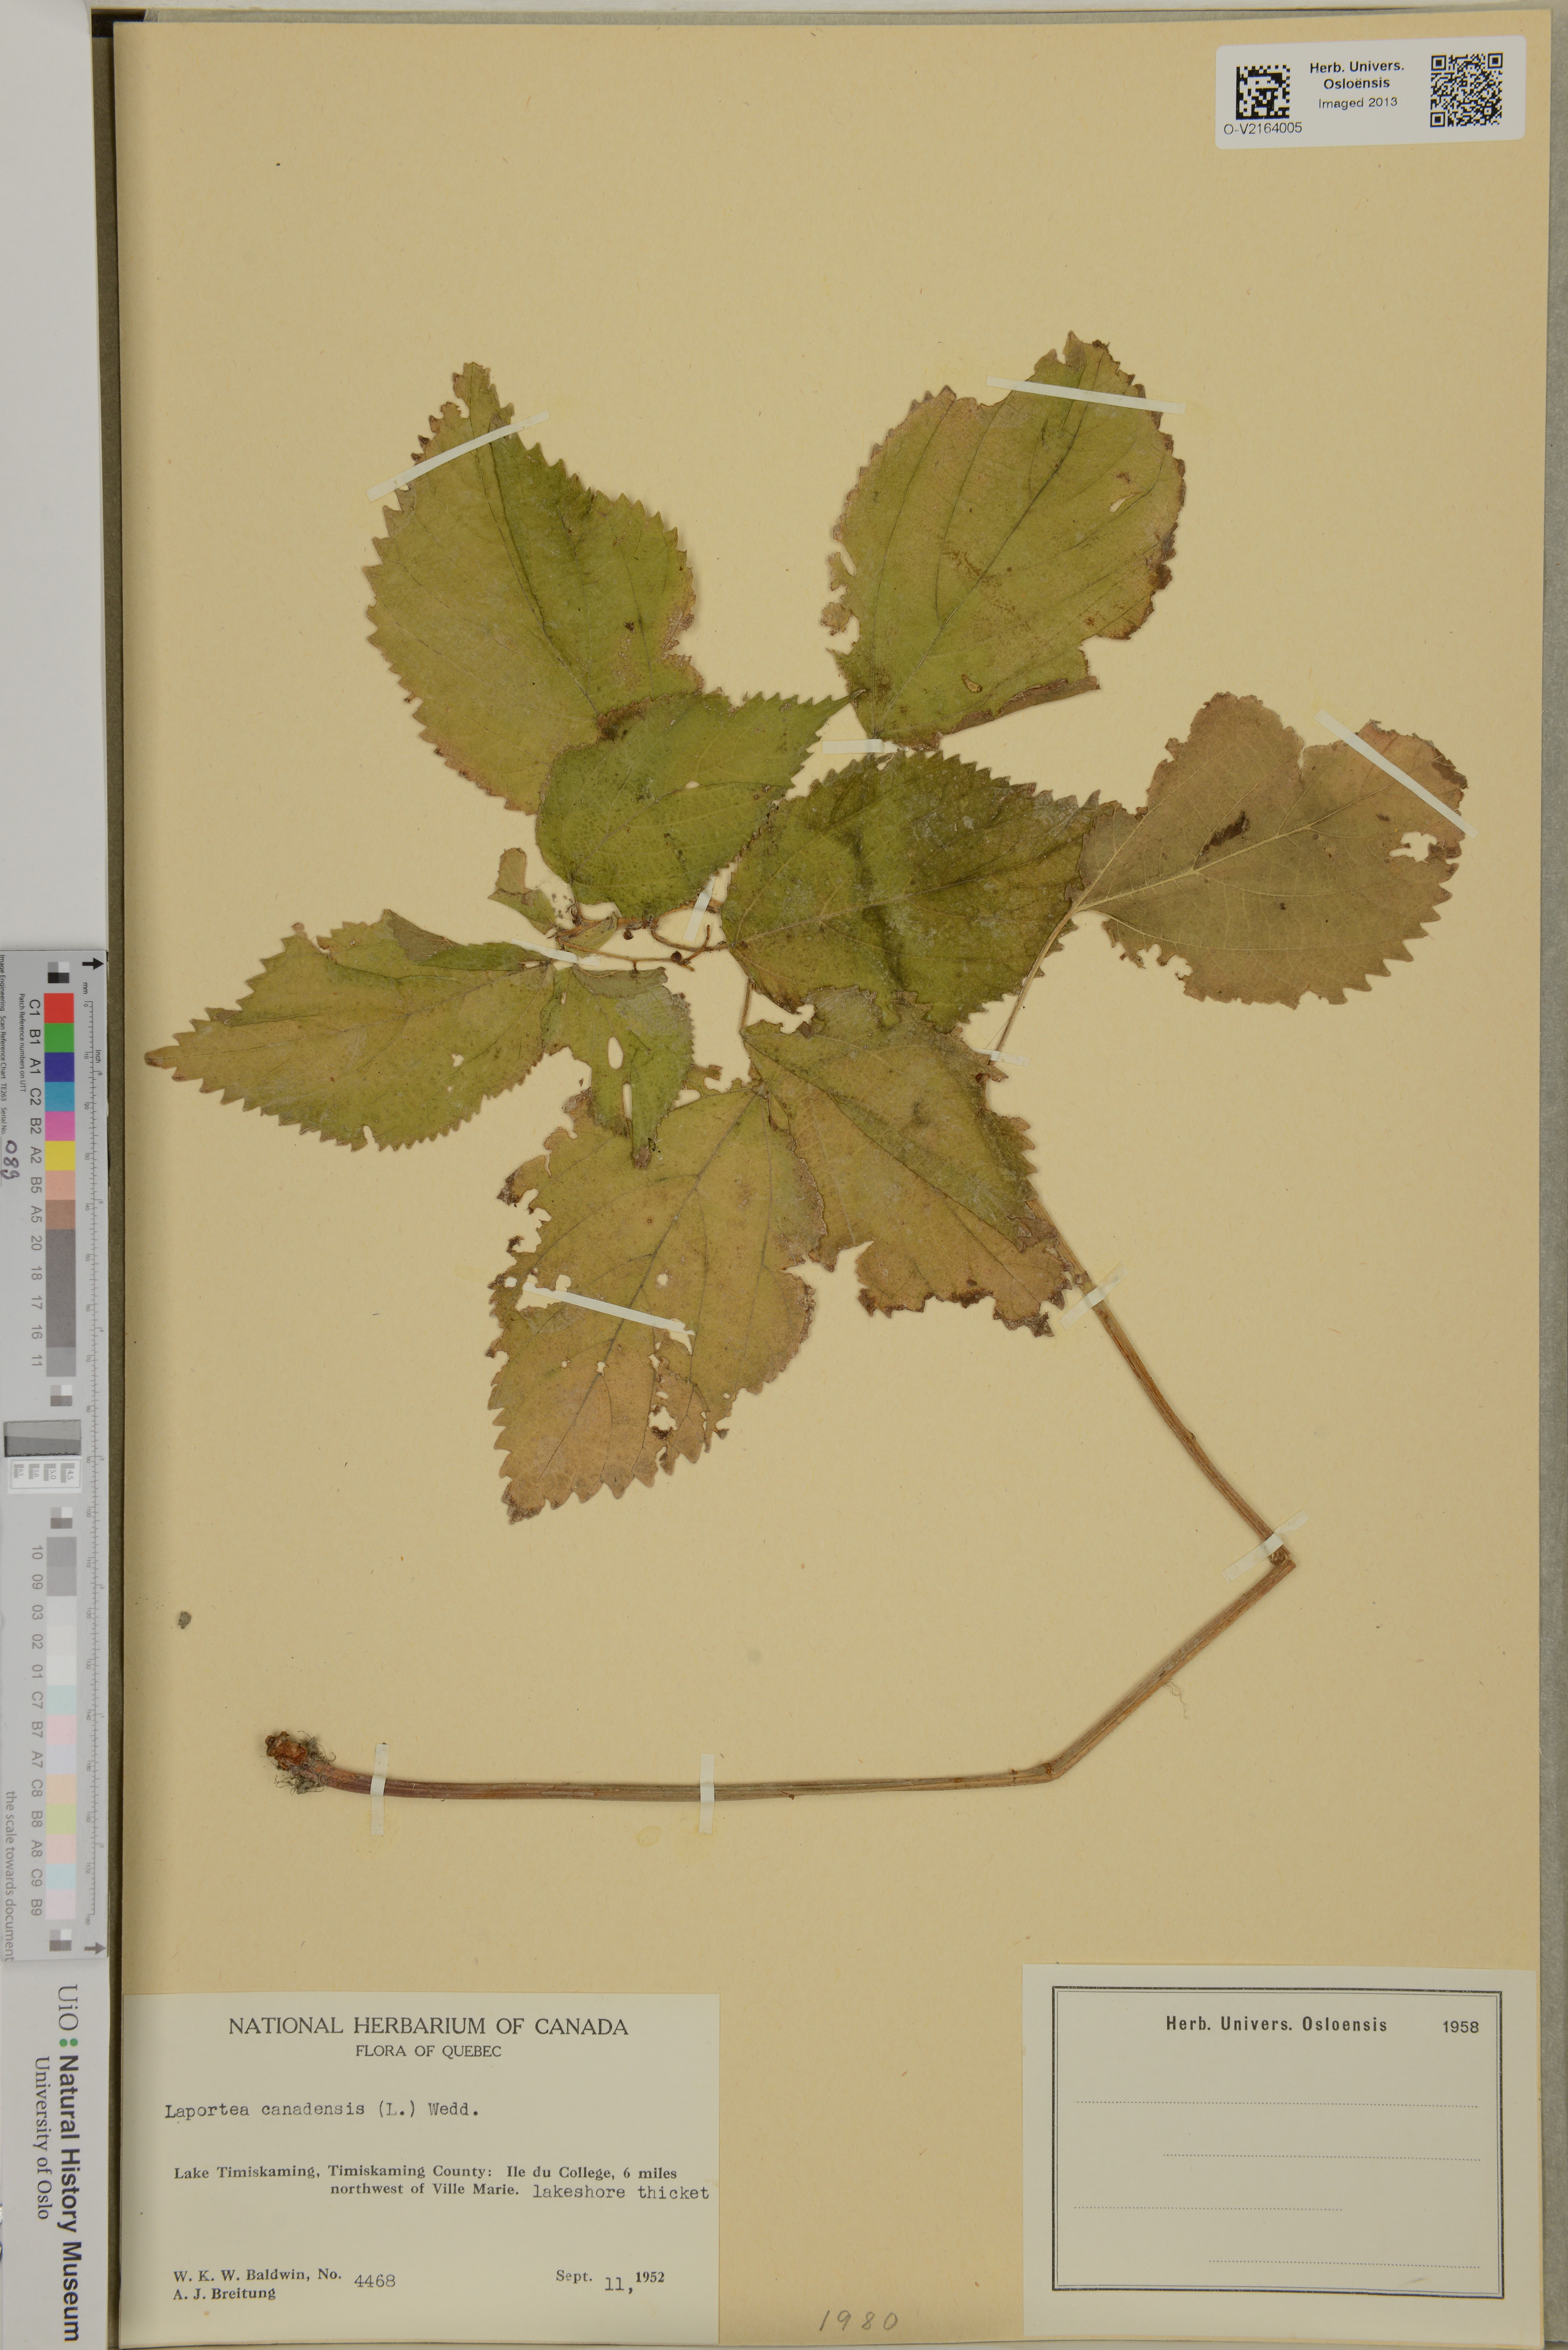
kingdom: Plantae
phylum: Tracheophyta
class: Magnoliopsida
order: Rosales
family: Urticaceae
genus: Laportea
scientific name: Laportea canadensis
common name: Canada nettle
